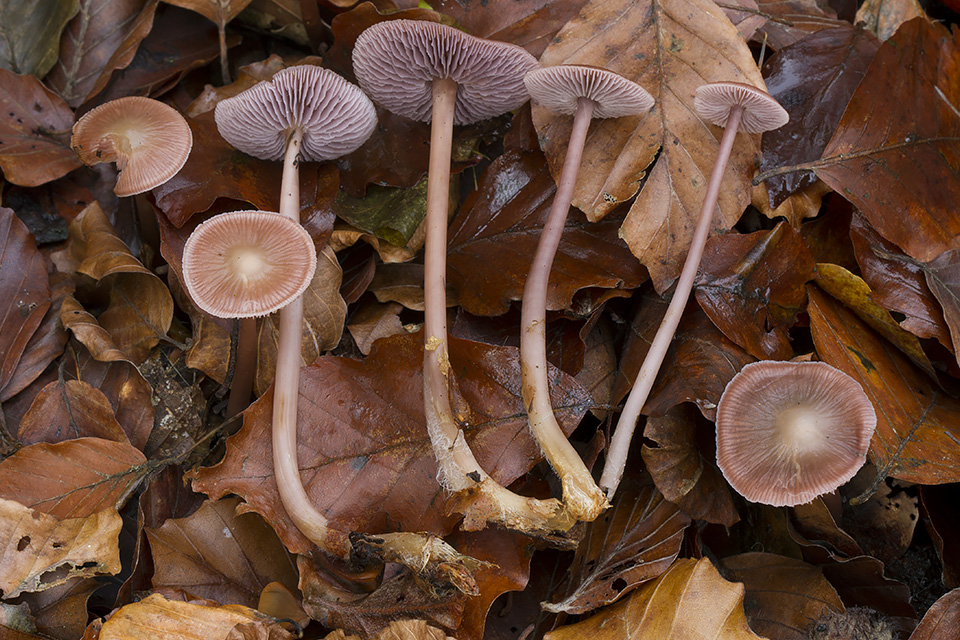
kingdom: Fungi
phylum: Basidiomycota
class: Agaricomycetes
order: Agaricales
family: Mycenaceae
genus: Prunulus
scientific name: Prunulus diosmus
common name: tobaks-huesvamp
